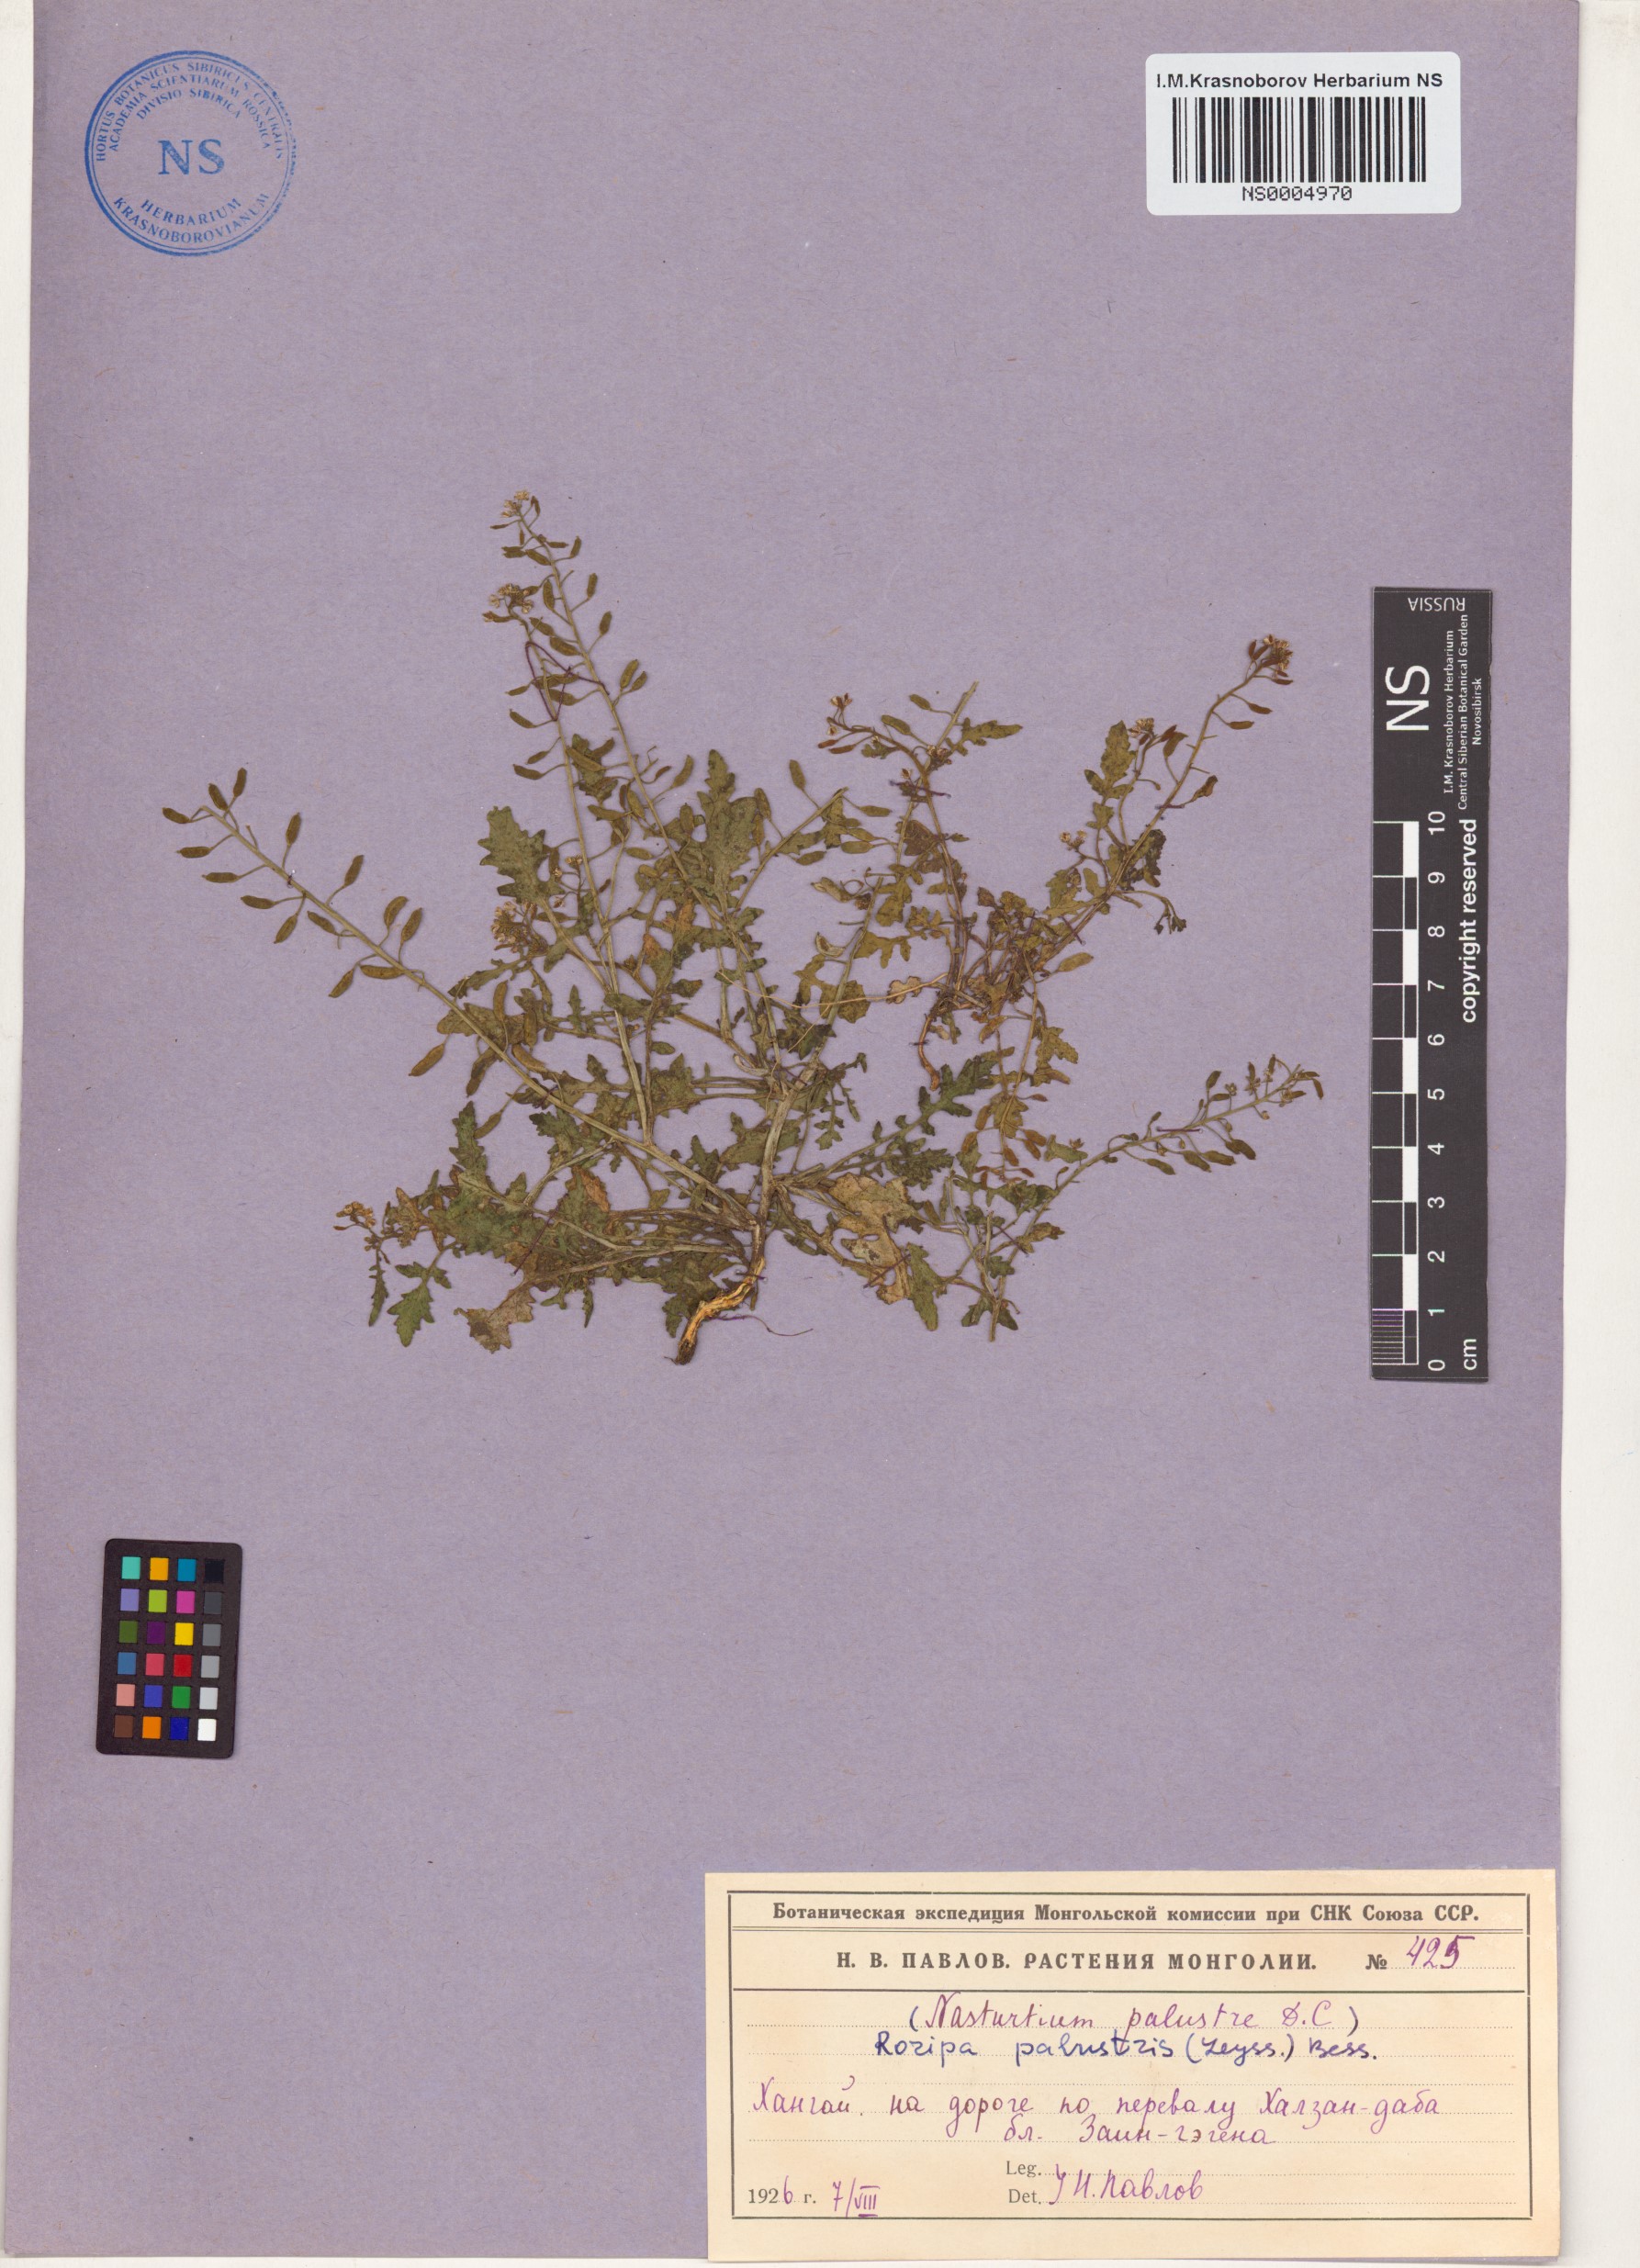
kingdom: Plantae
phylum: Tracheophyta
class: Magnoliopsida
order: Brassicales
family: Brassicaceae
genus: Rorippa
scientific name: Rorippa palustris
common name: Marsh yellow-cress
